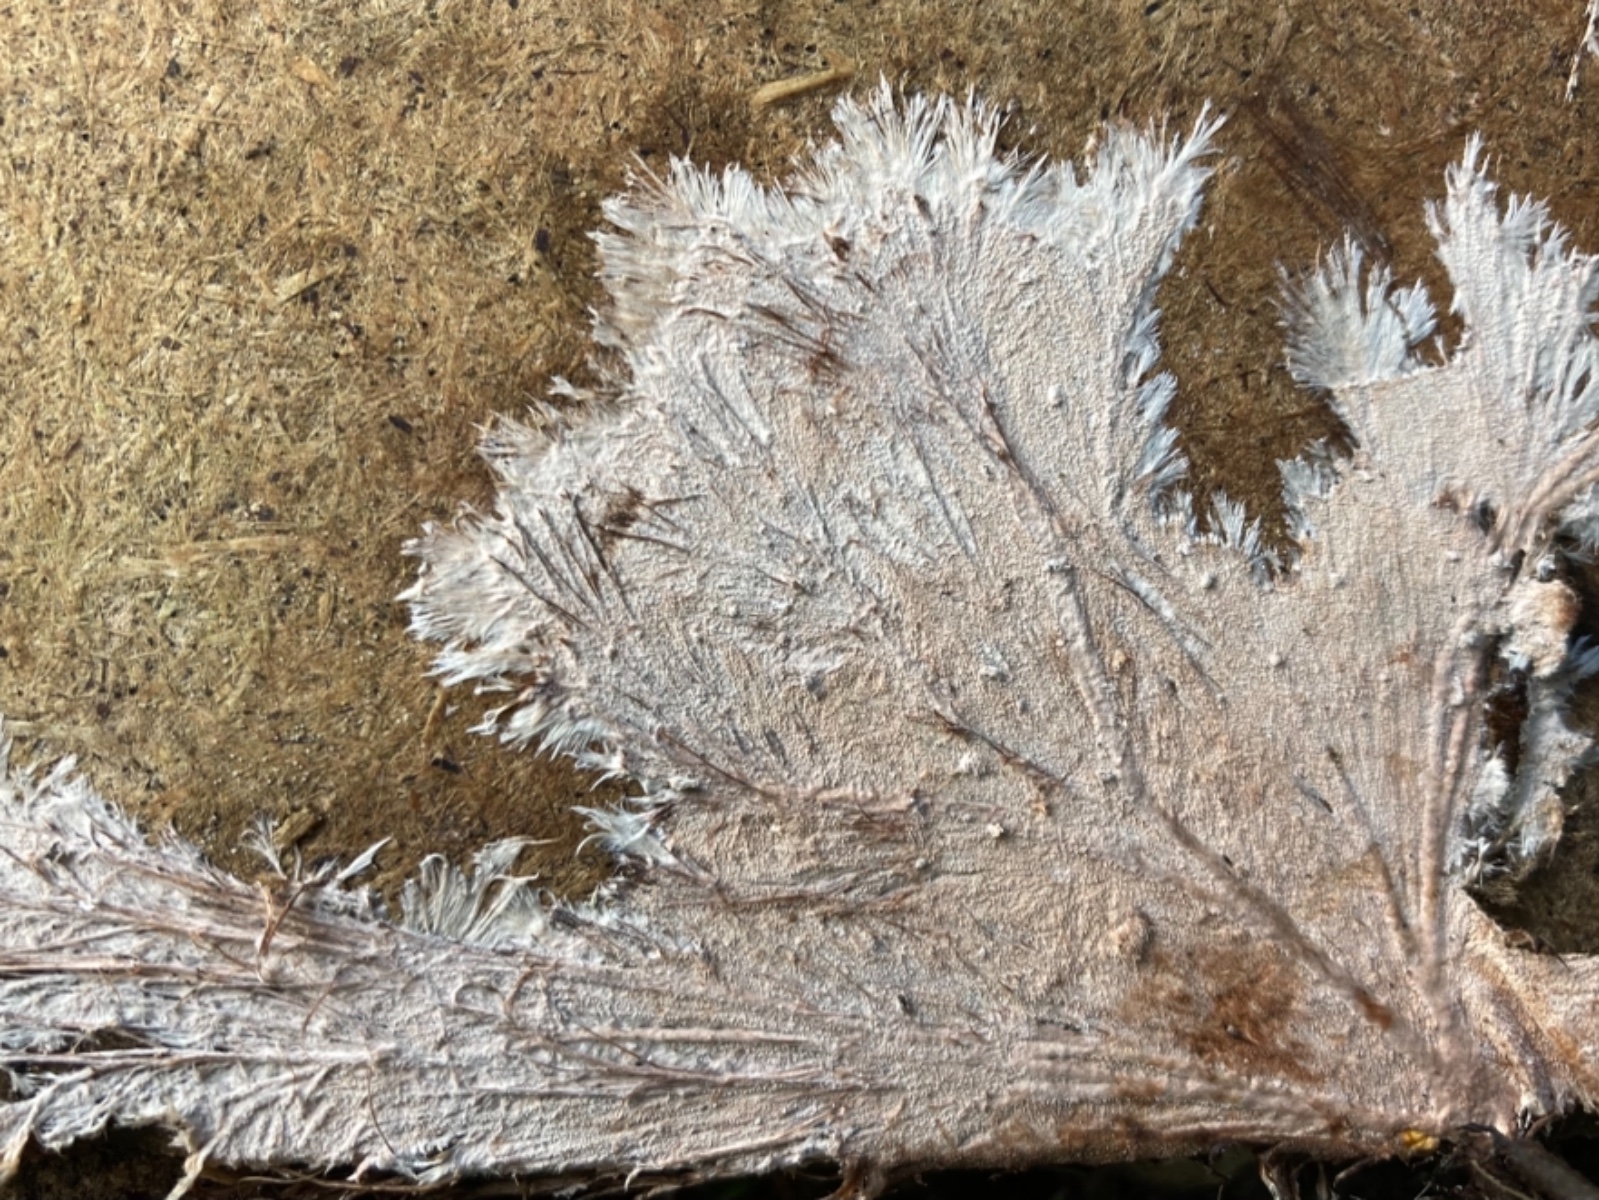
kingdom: Fungi
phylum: Basidiomycota
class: Agaricomycetes
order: Polyporales
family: Steccherinaceae
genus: Steccherinum
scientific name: Steccherinum fimbriatum
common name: trådet skønpig
